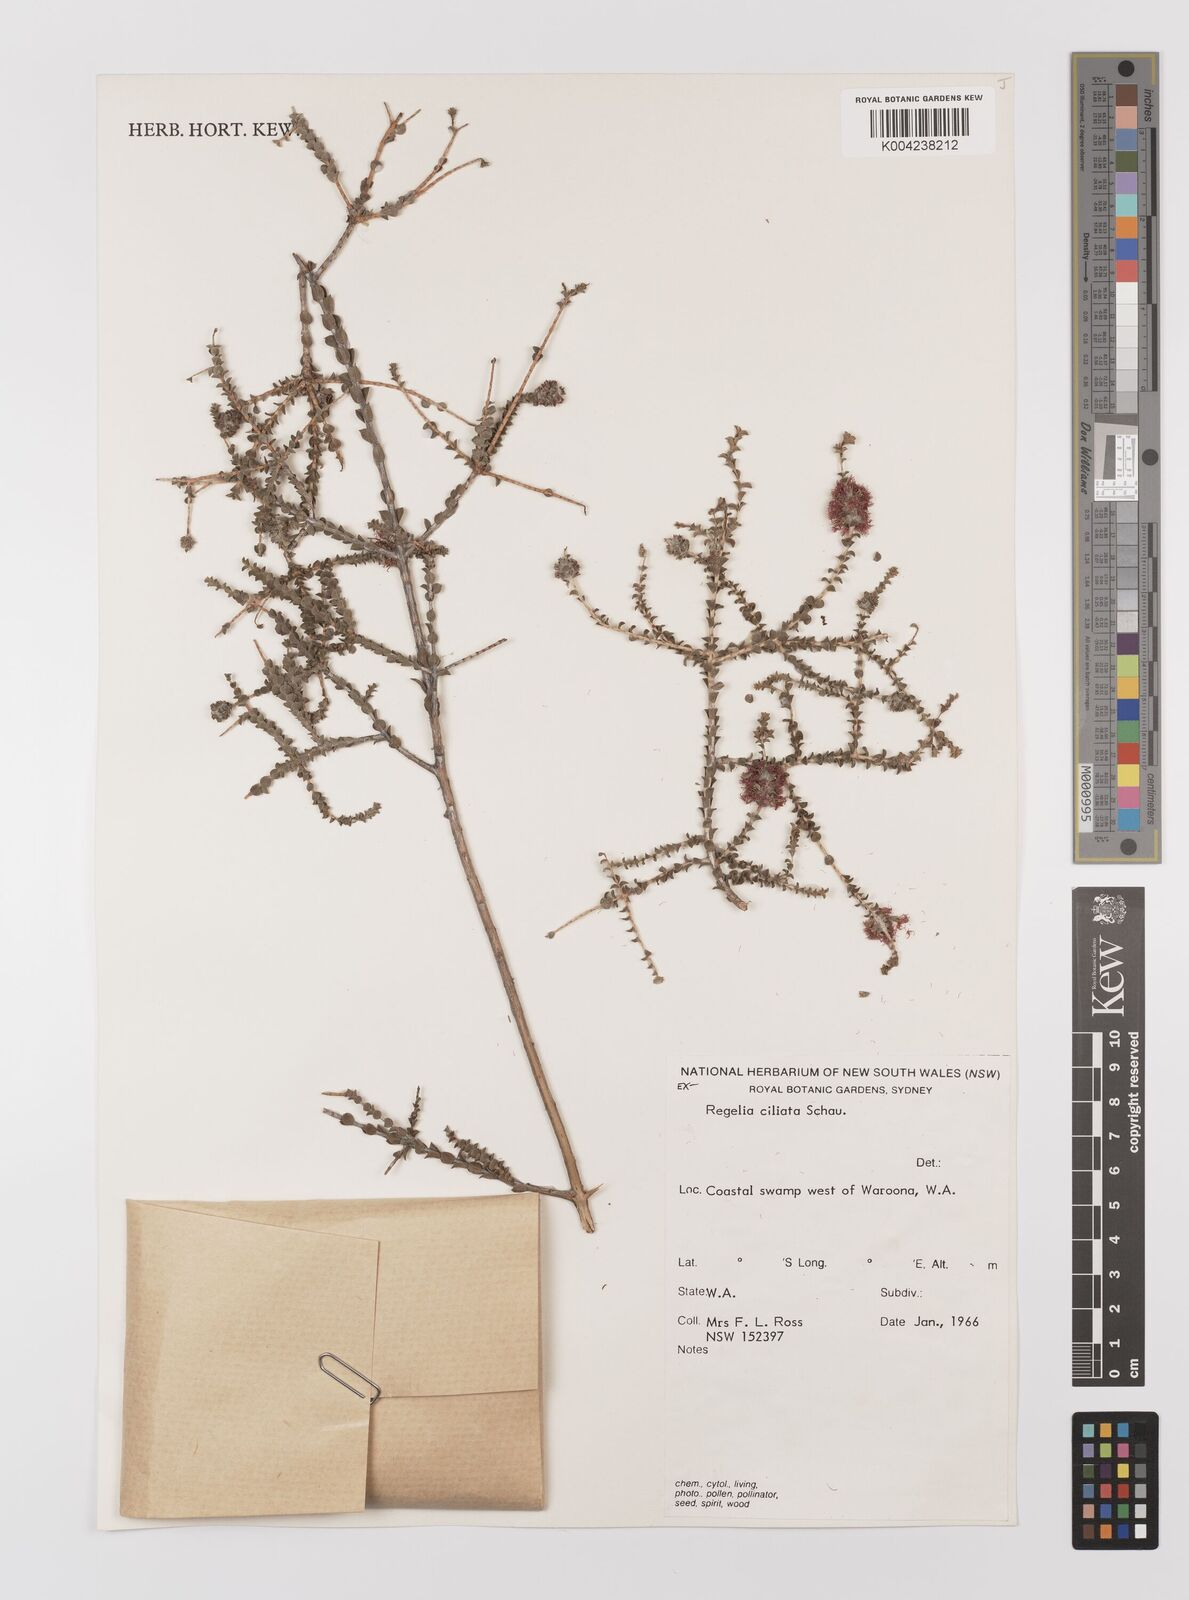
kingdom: Plantae
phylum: Tracheophyta
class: Magnoliopsida
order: Myrtales
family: Myrtaceae
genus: Melaleuca
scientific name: Melaleuca crossota
